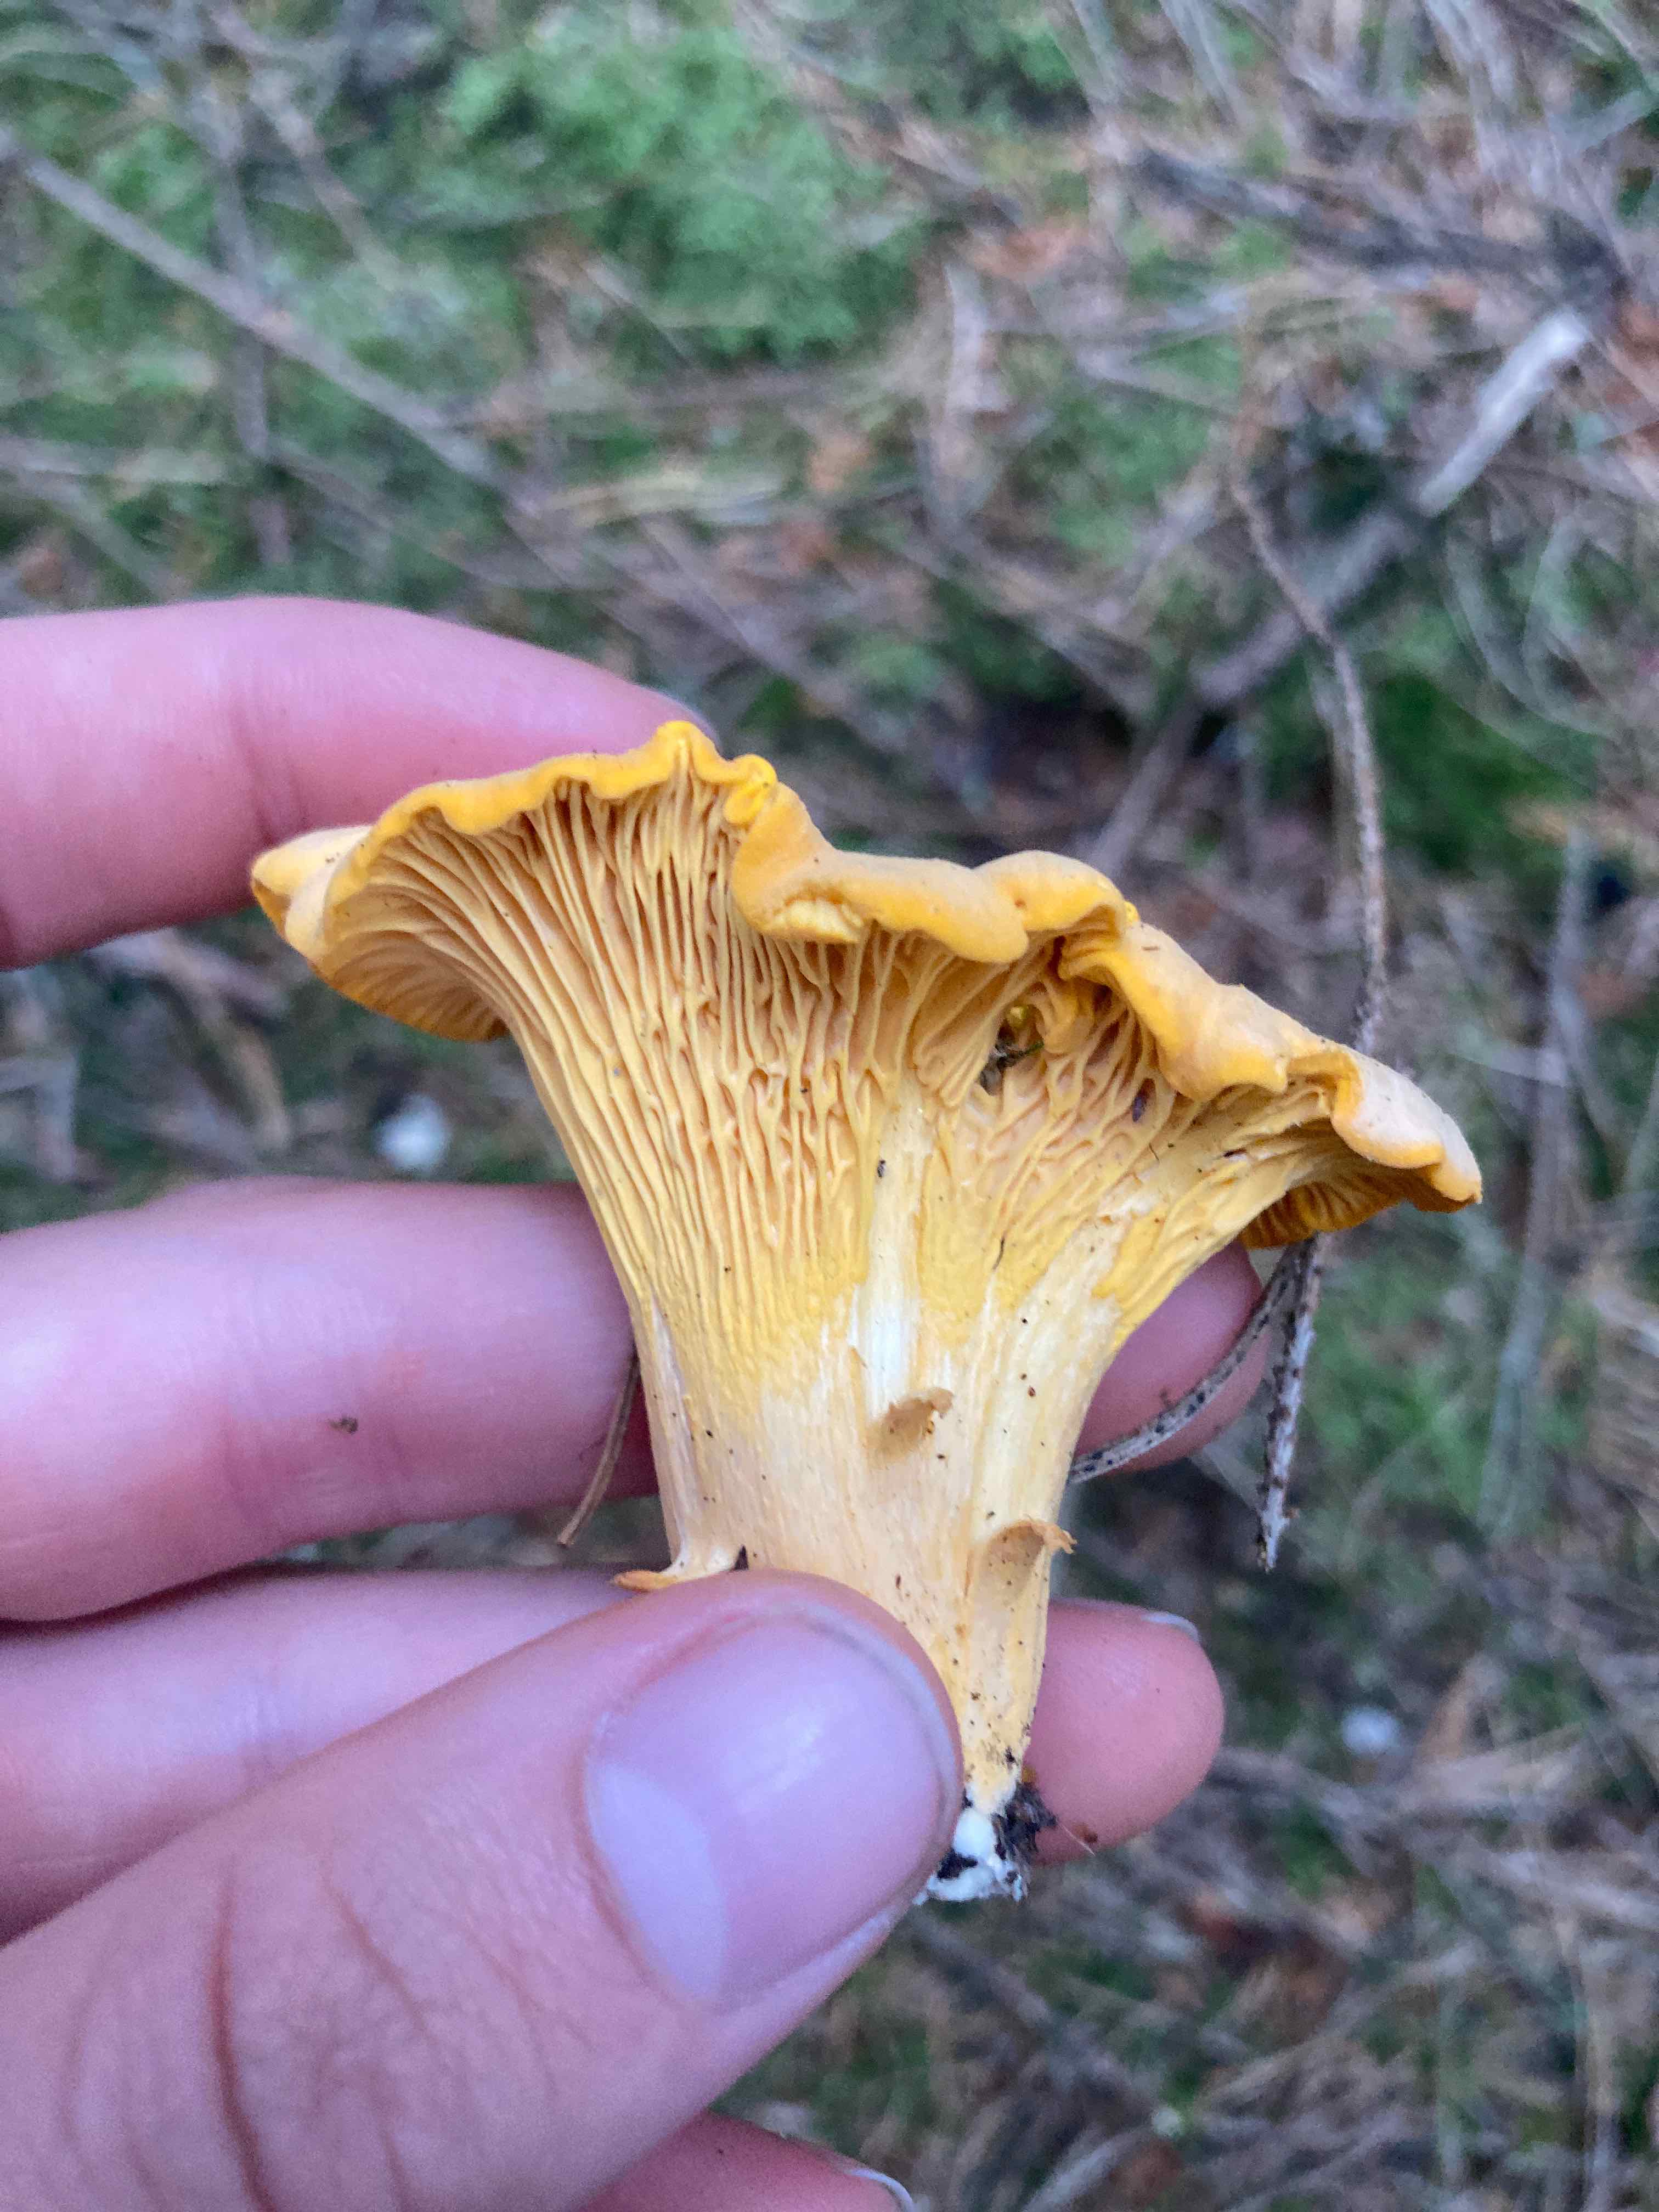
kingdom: Fungi
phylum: Basidiomycota
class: Agaricomycetes
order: Cantharellales
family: Hydnaceae
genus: Cantharellus
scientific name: Cantharellus cibarius
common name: almindelig kantarel
